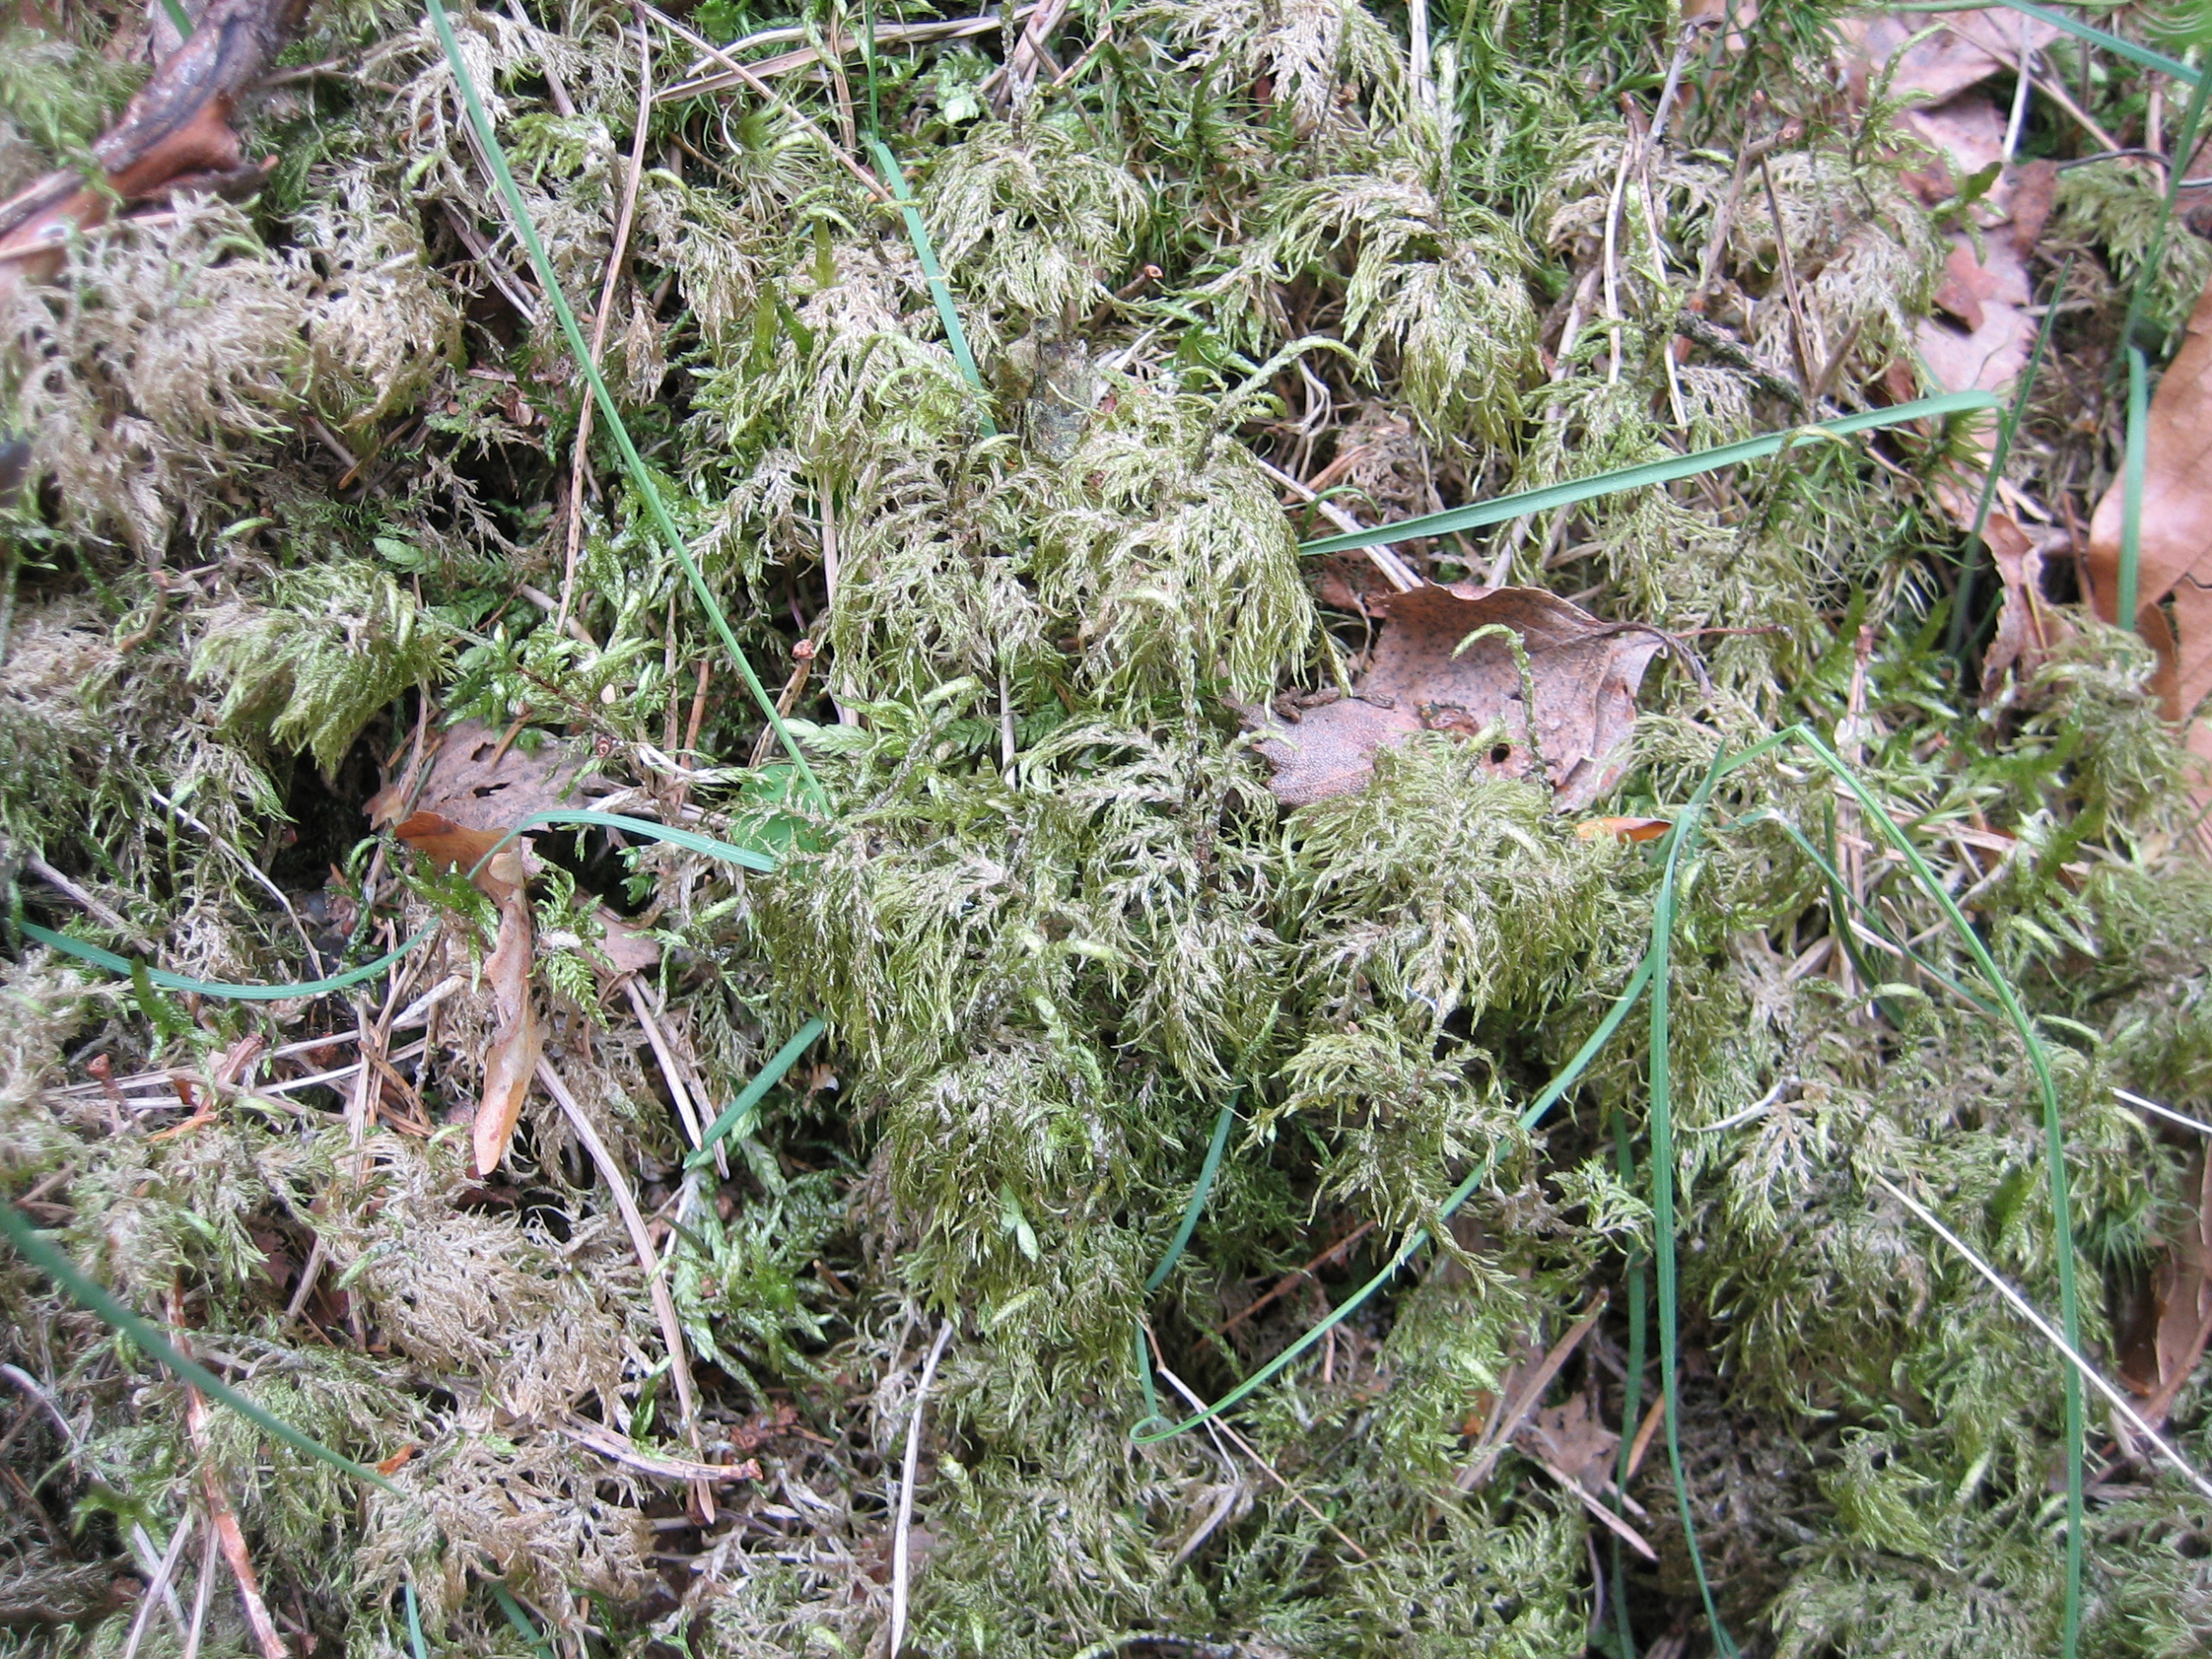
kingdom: Plantae
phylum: Bryophyta
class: Bryopsida
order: Hypnales
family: Hylocomiaceae
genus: Hylocomium
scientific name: Hylocomium splendens
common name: Almindelig etagemos
